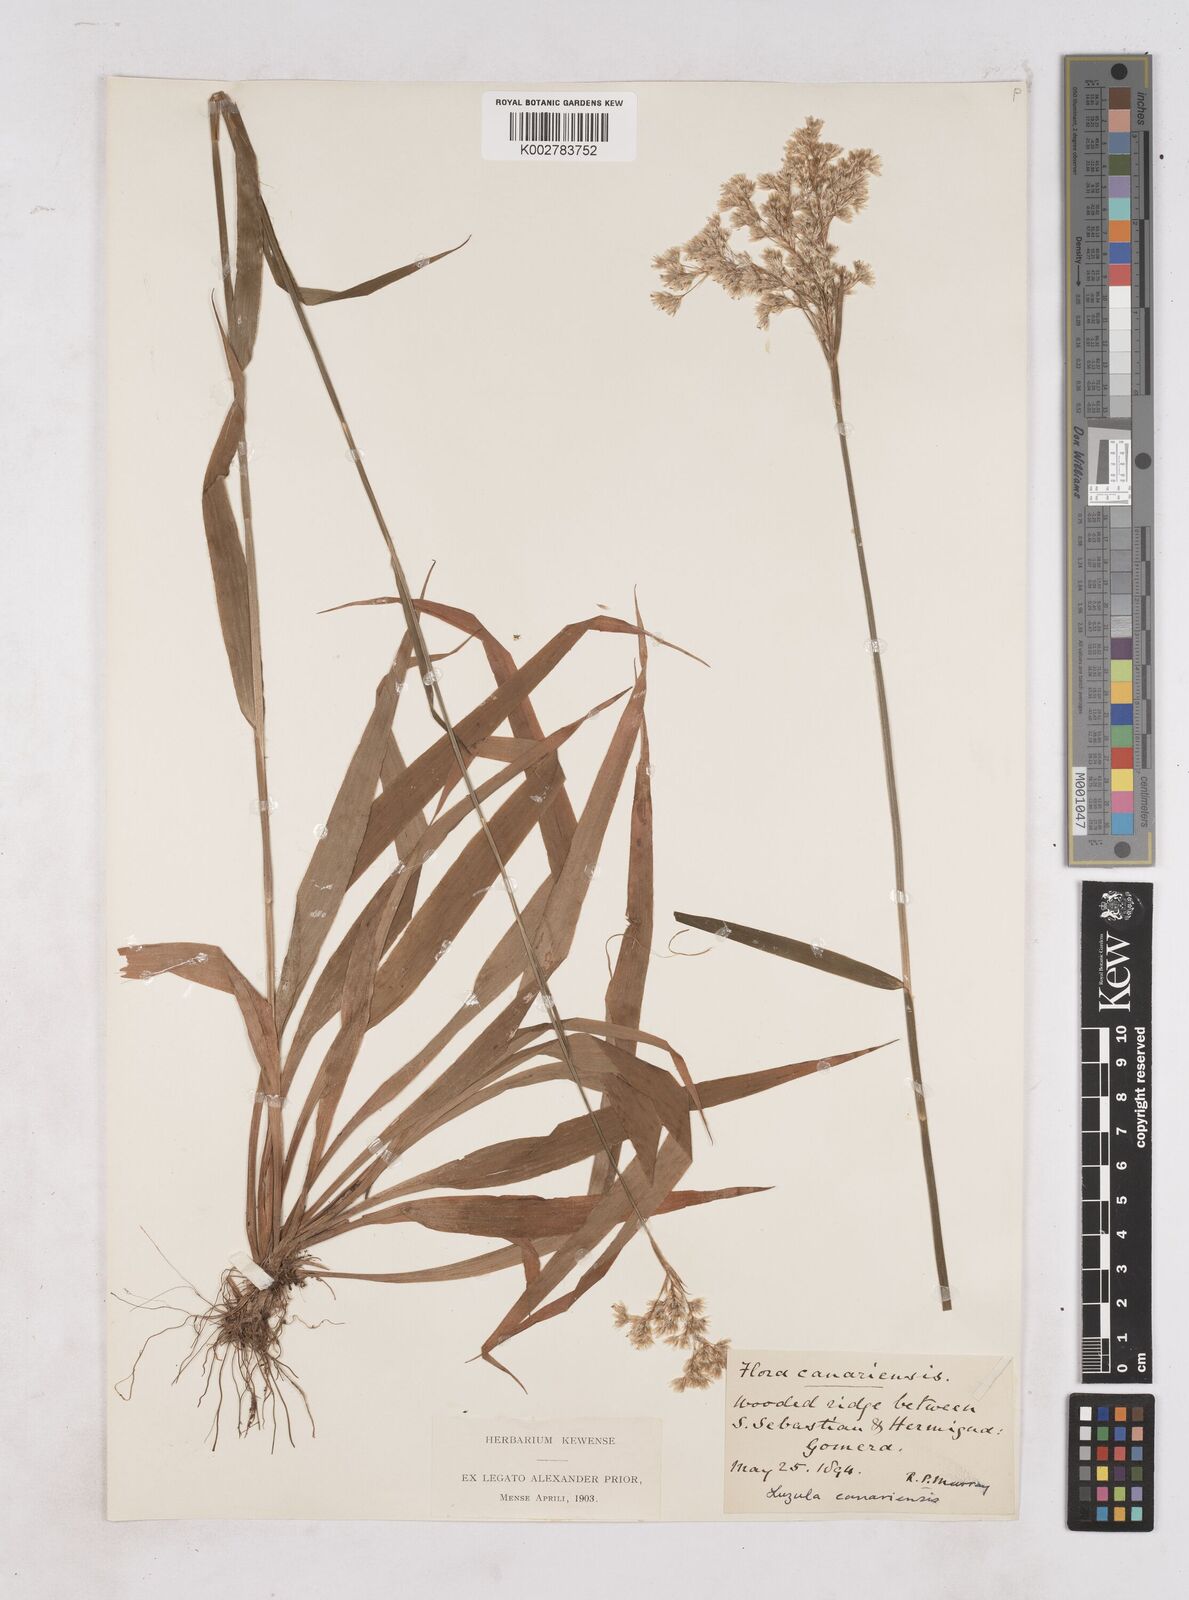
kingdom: Plantae
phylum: Tracheophyta
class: Liliopsida
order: Poales
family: Juncaceae
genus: Luzula
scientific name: Luzula canariensis
